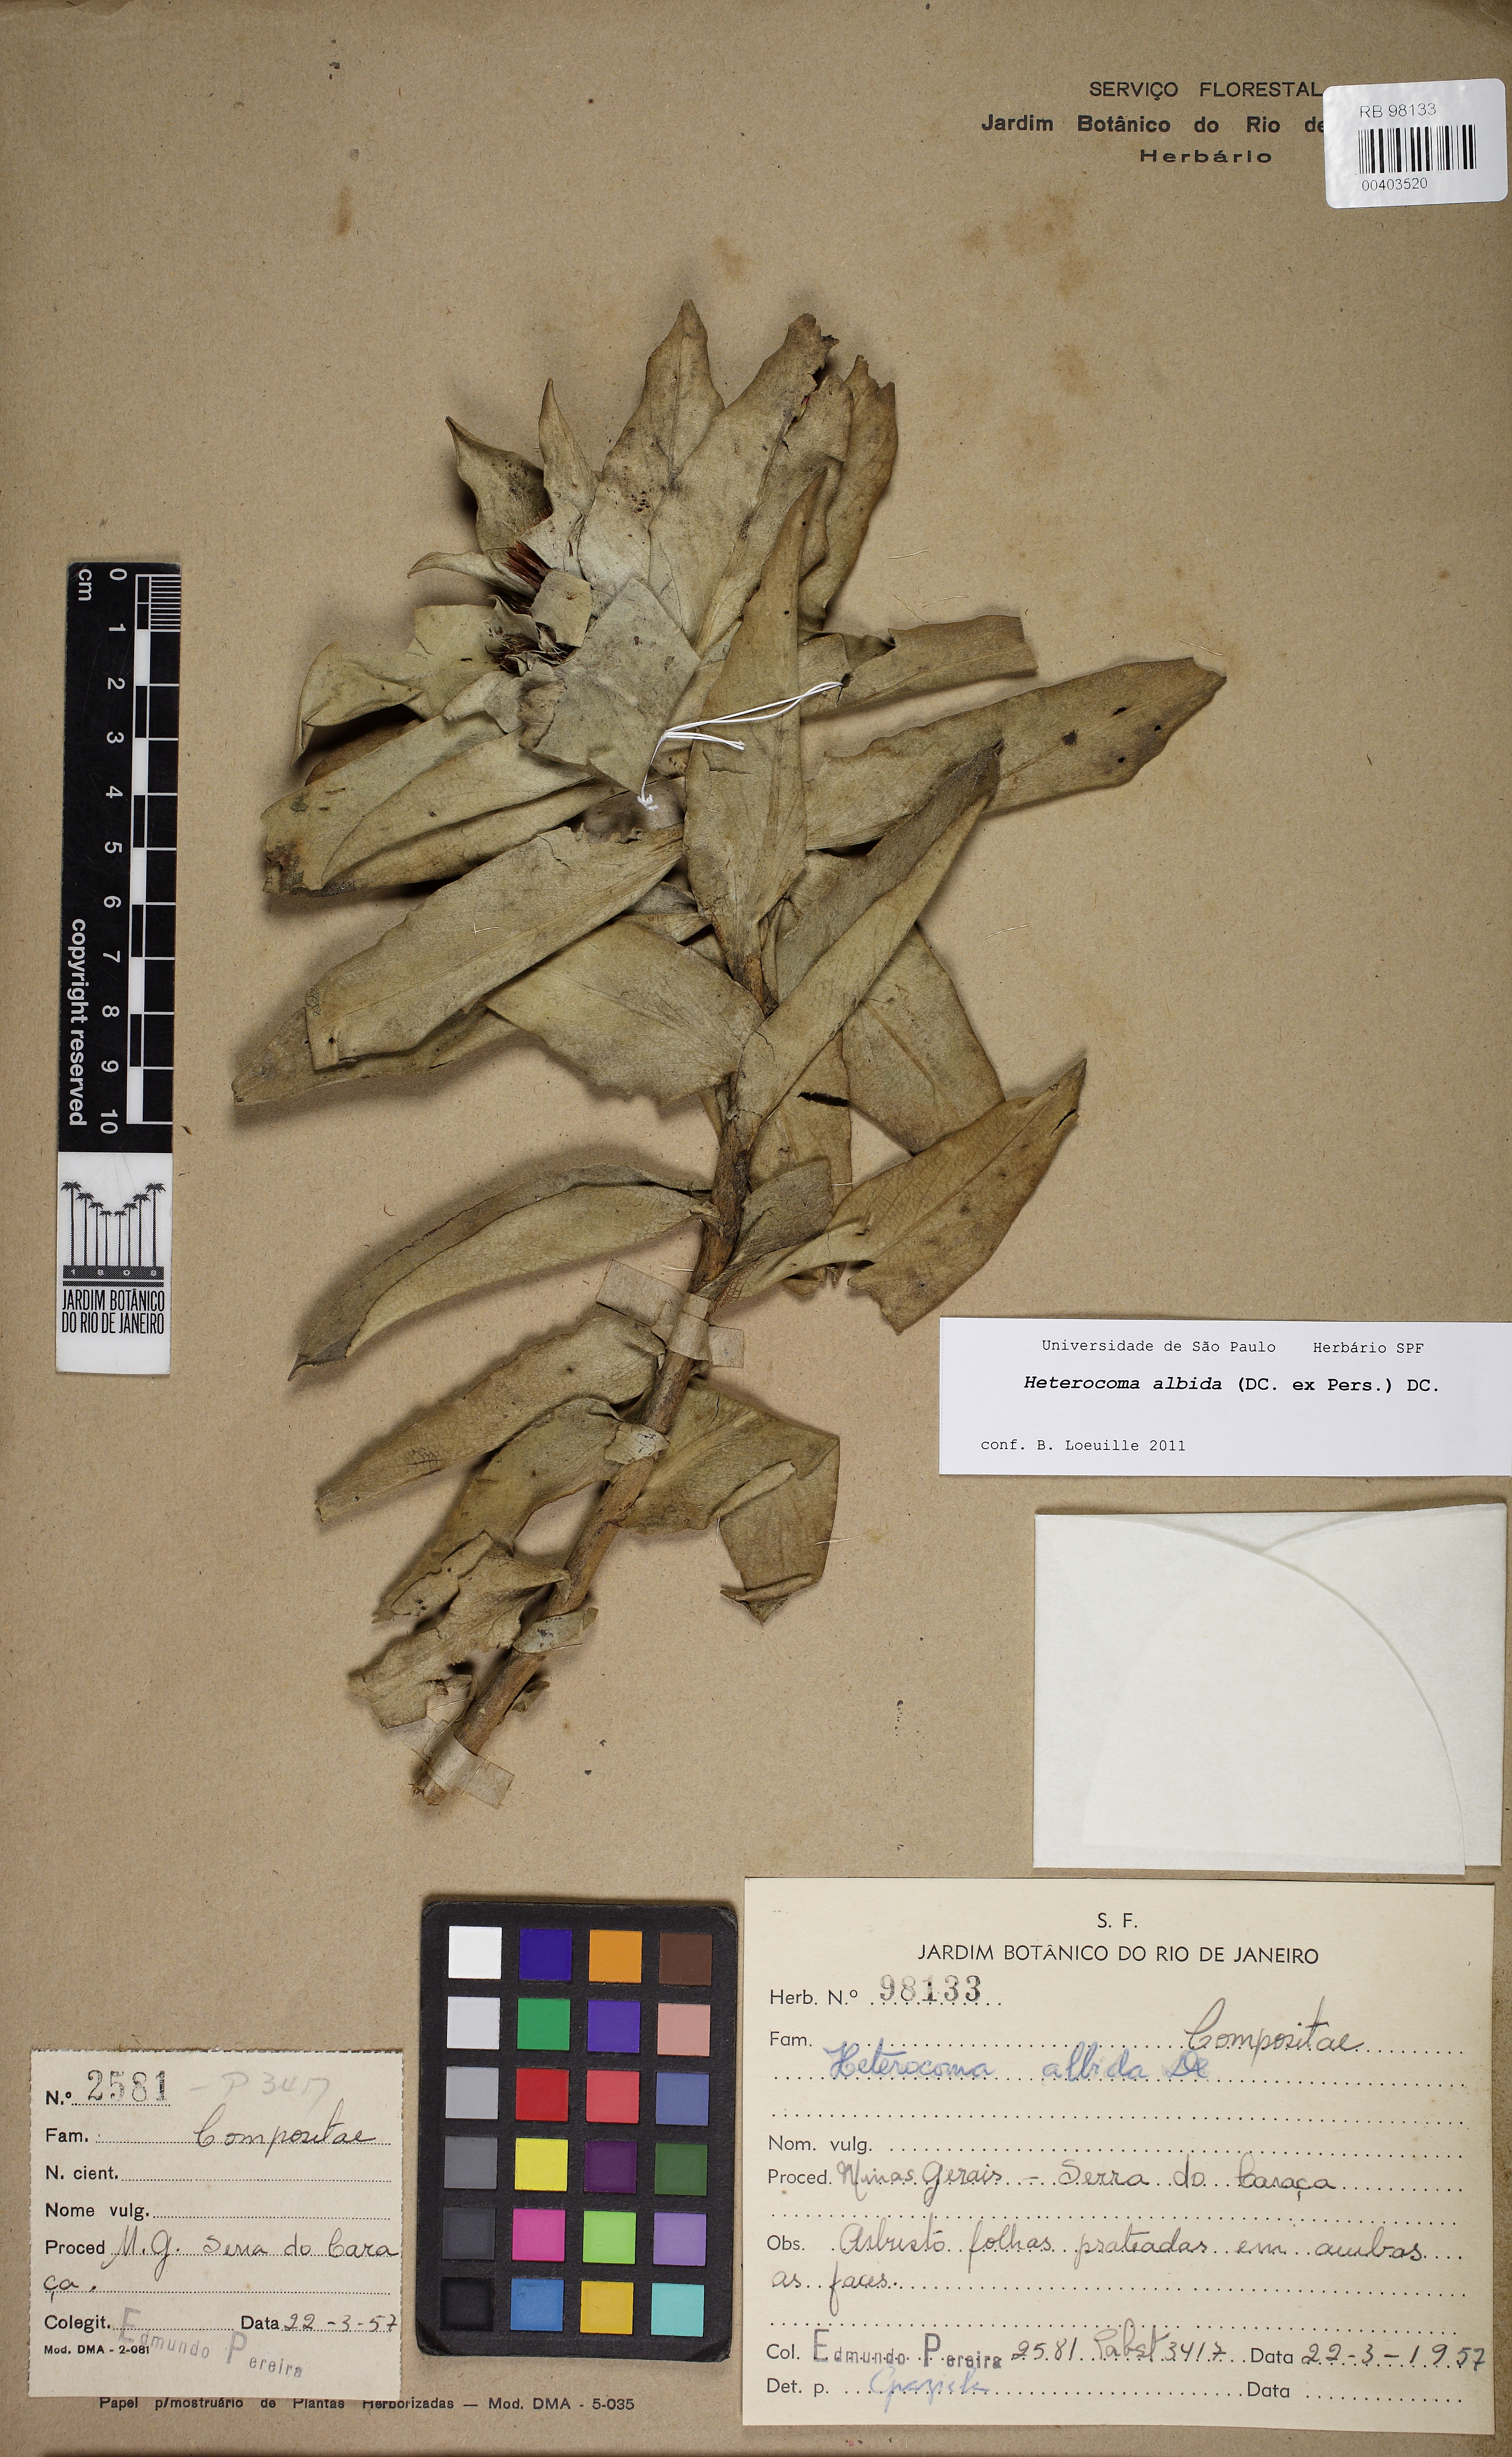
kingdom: Plantae
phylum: Tracheophyta
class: Magnoliopsida
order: Asterales
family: Asteraceae
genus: Heterocoma
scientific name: Heterocoma albida
